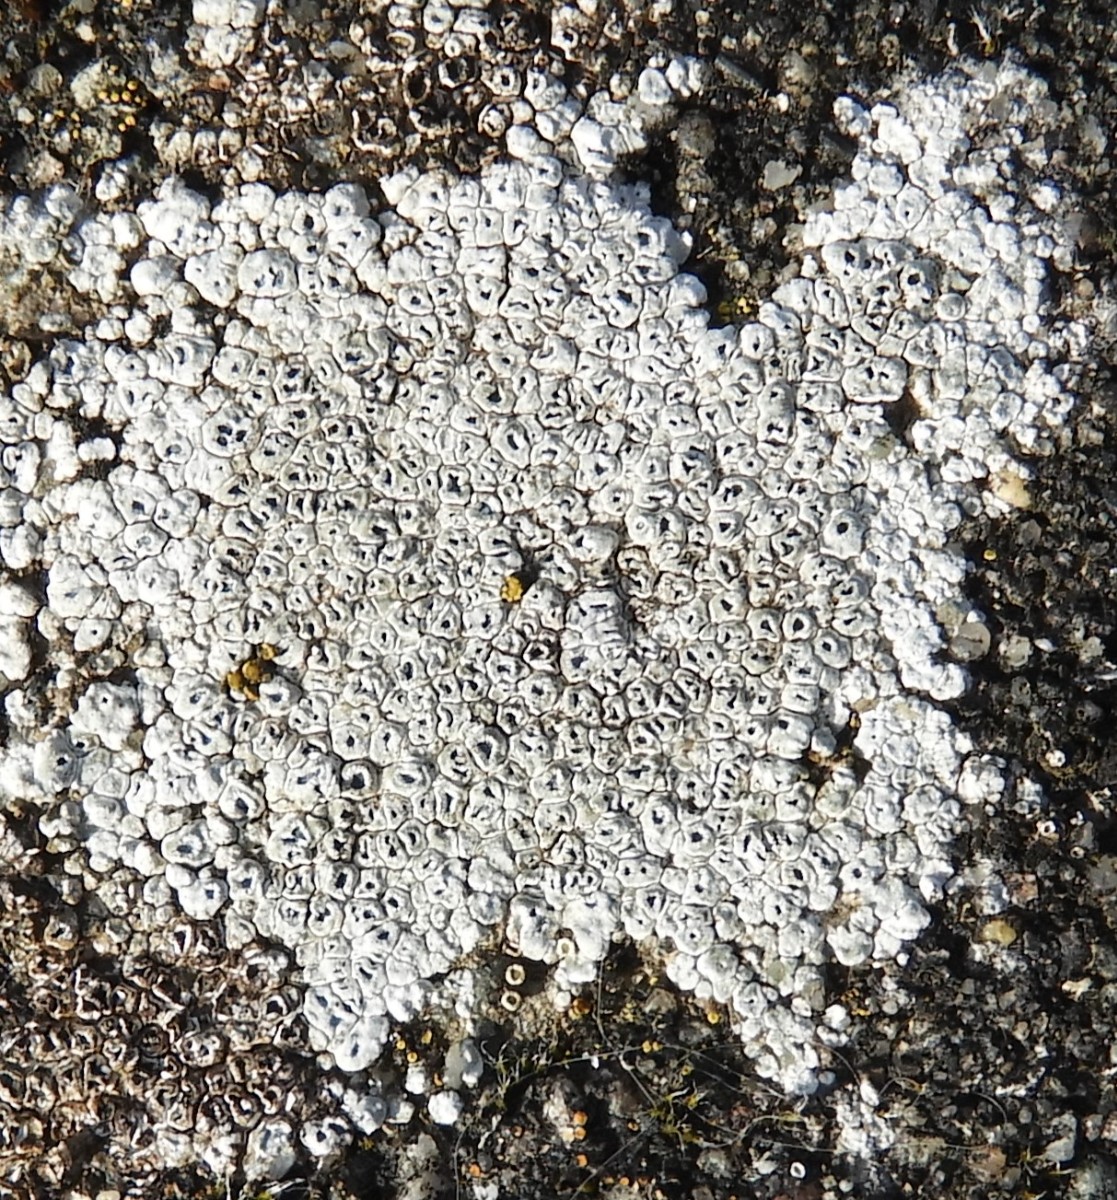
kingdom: Fungi
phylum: Ascomycota
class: Lecanoromycetes
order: Pertusariales
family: Megasporaceae
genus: Circinaria
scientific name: Circinaria contorta
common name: indviklet hulskivelav
